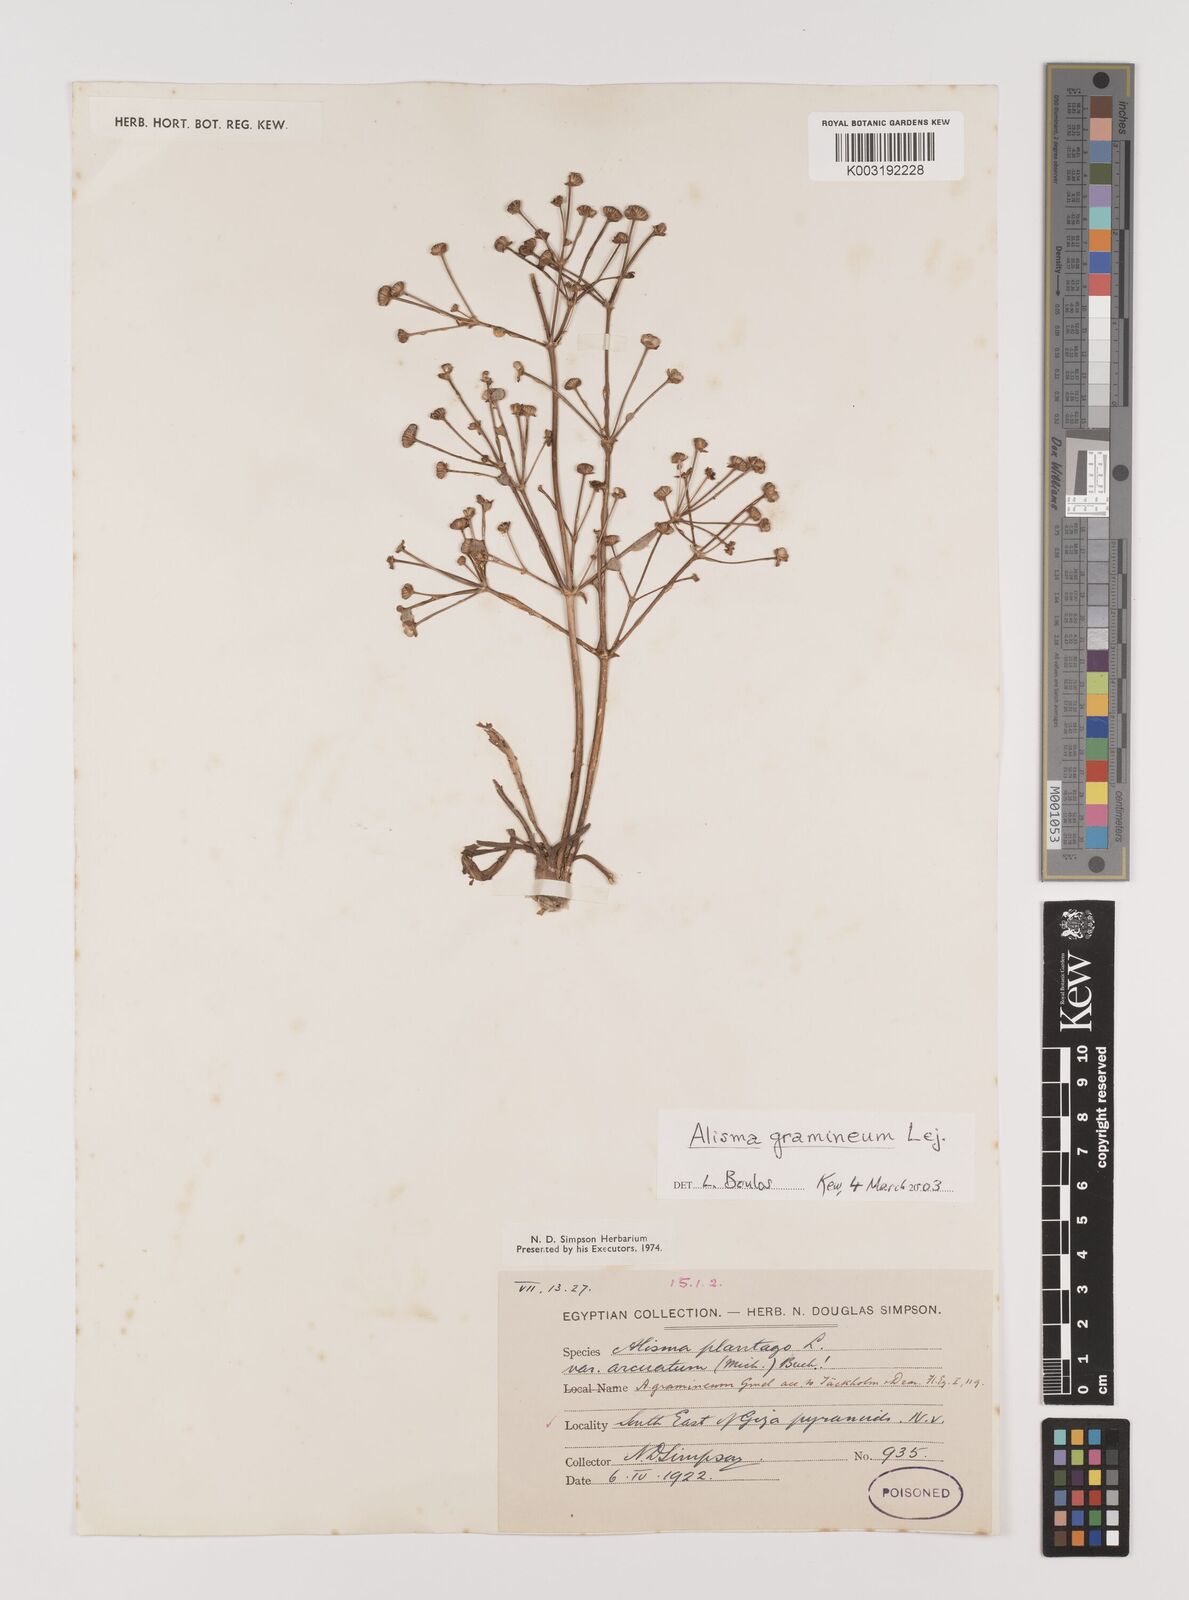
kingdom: Plantae
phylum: Tracheophyta
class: Liliopsida
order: Alismatales
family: Alismataceae
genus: Alisma
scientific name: Alisma gramineum
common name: Ribbon-leaved water-plantain
